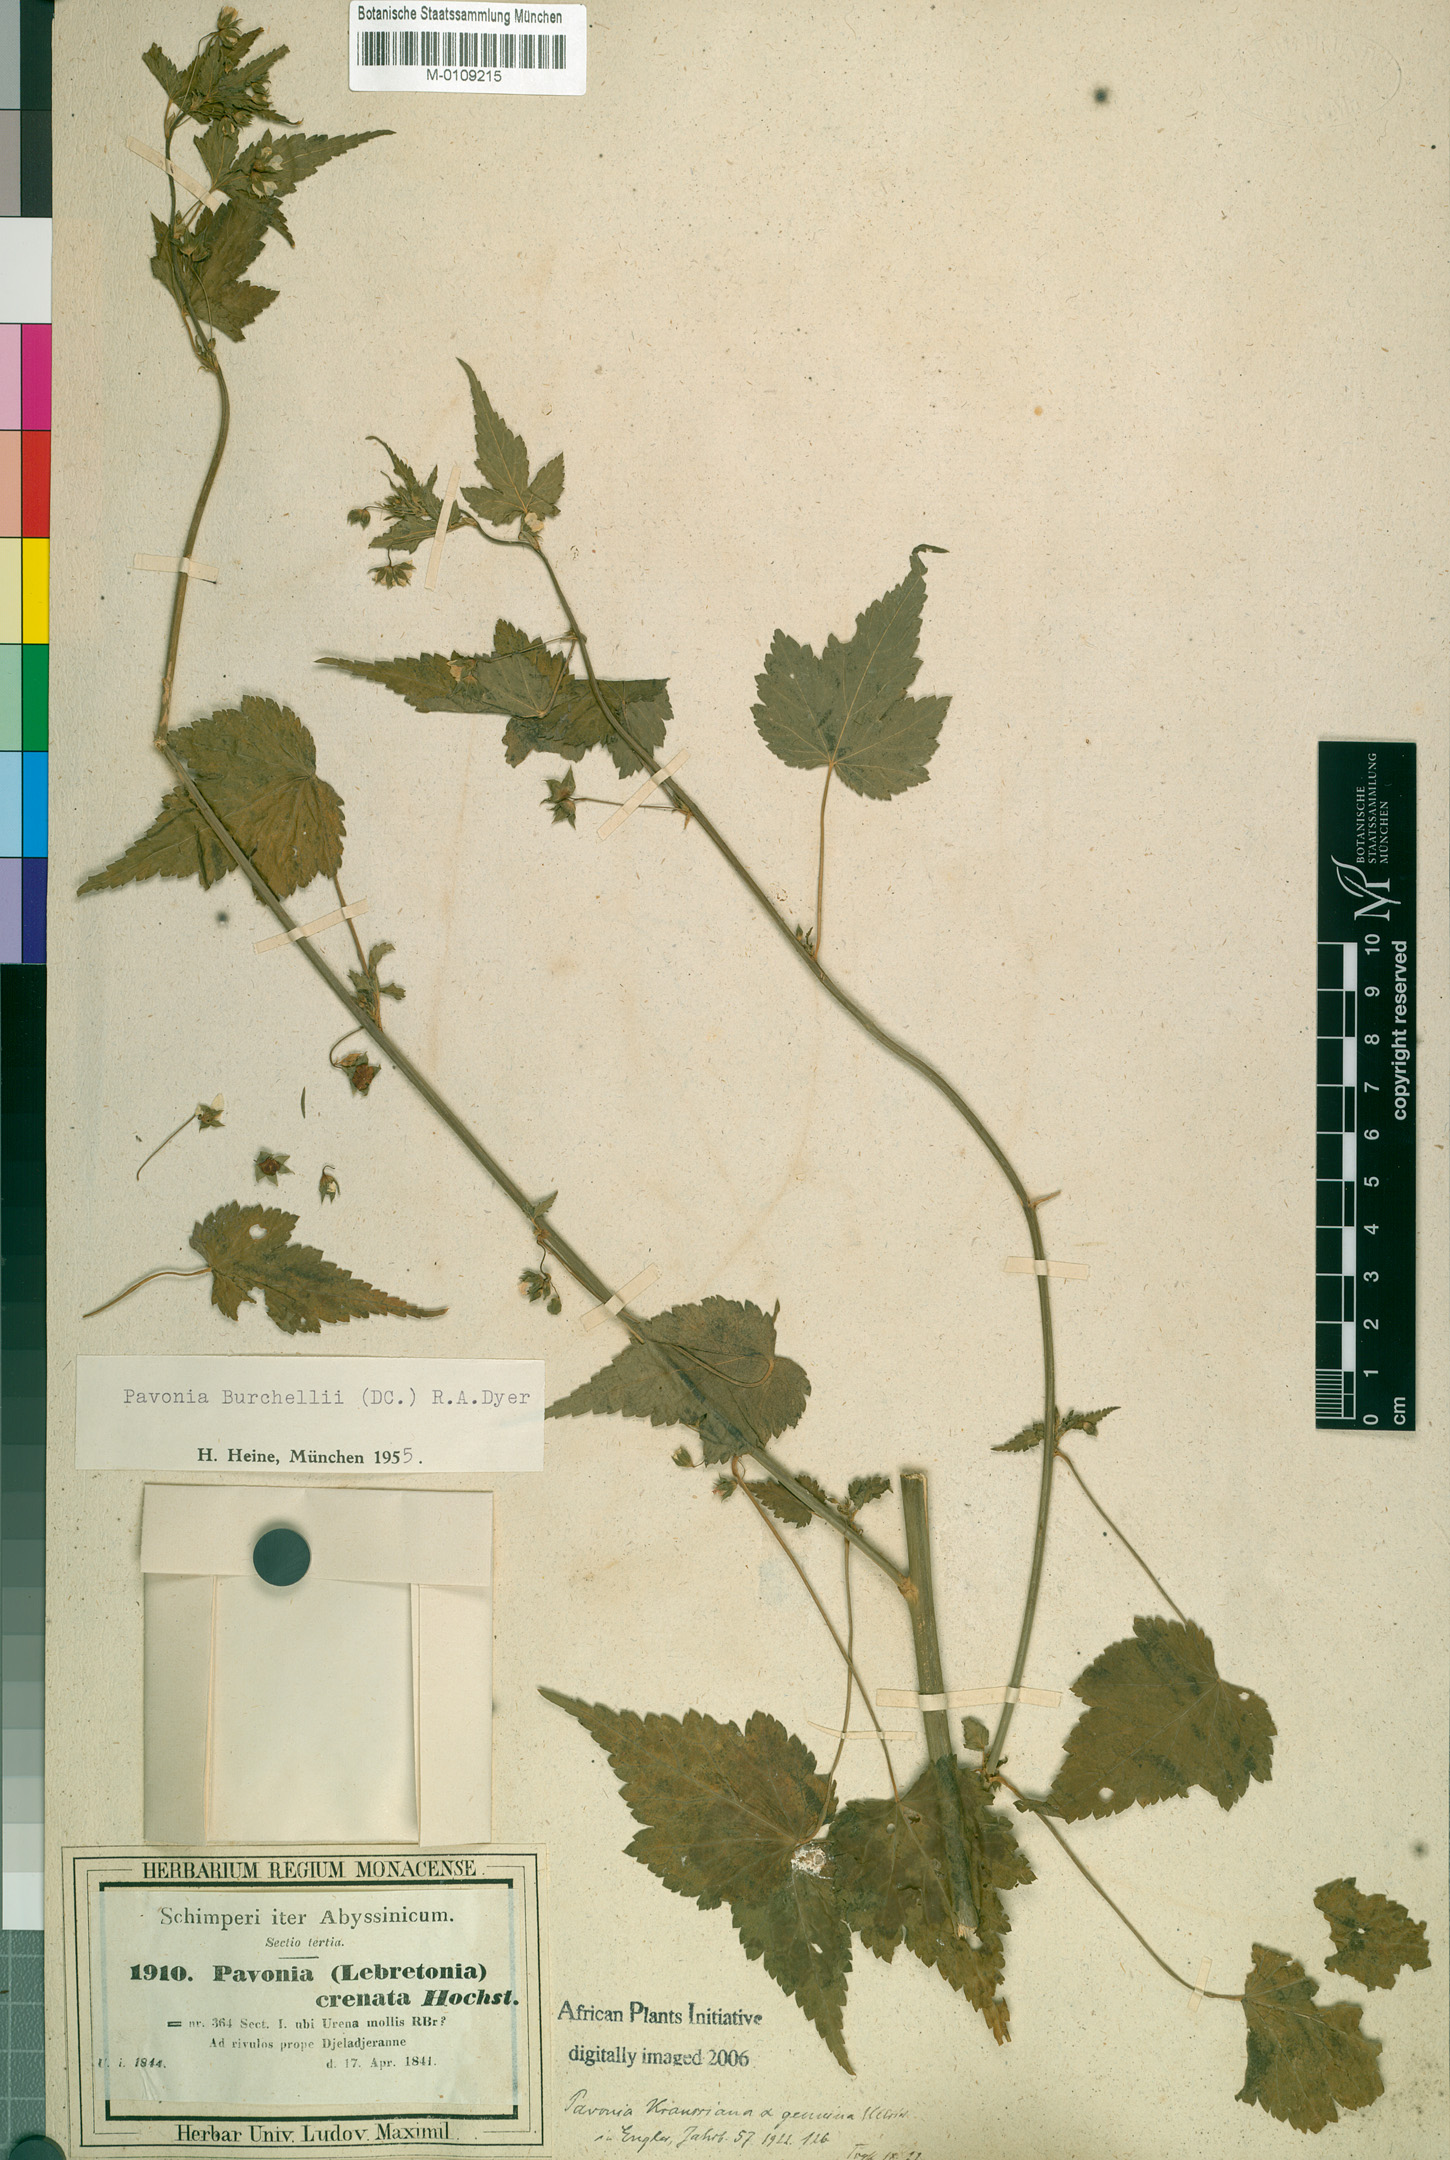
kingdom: Plantae
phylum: Tracheophyta
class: Magnoliopsida
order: Malvales
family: Malvaceae
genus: Pavonia
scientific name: Pavonia burchellii
